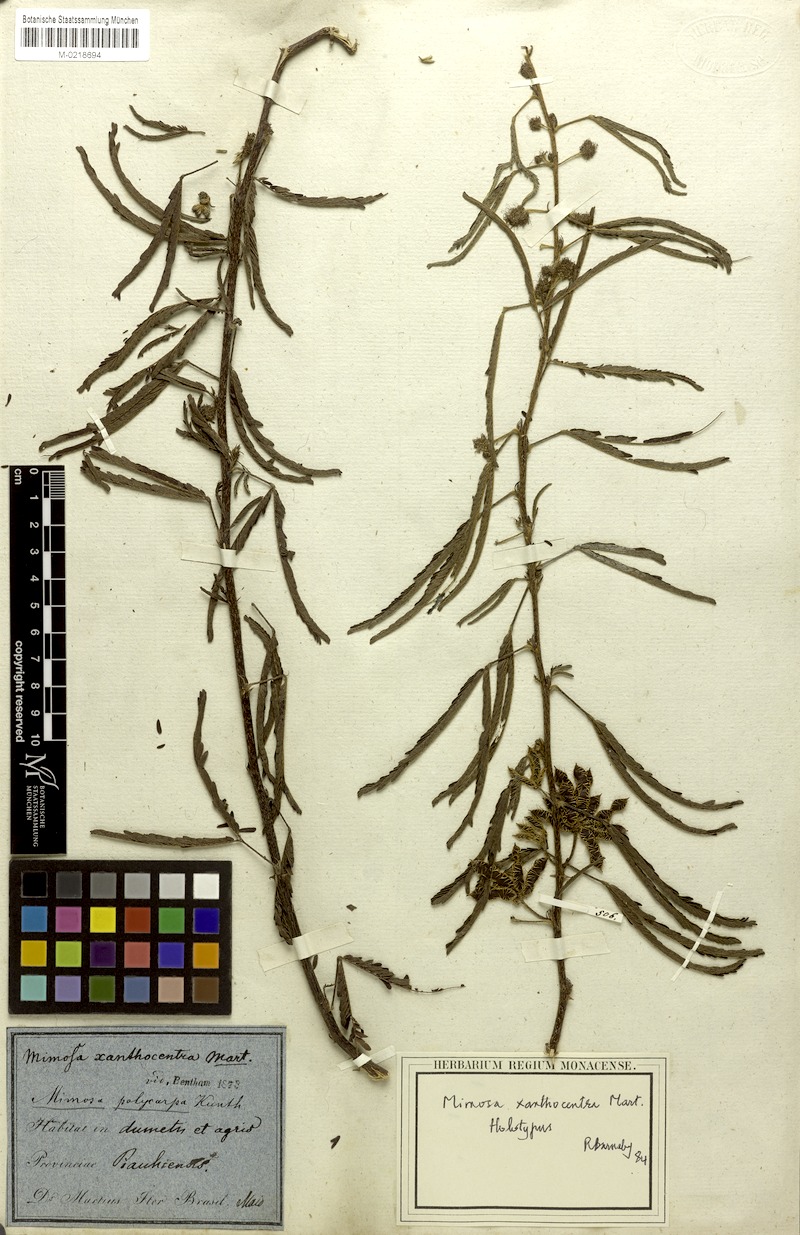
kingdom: Plantae
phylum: Tracheophyta
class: Magnoliopsida
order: Fabales
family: Fabaceae
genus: Mimosa
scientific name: Mimosa xanthocentra
